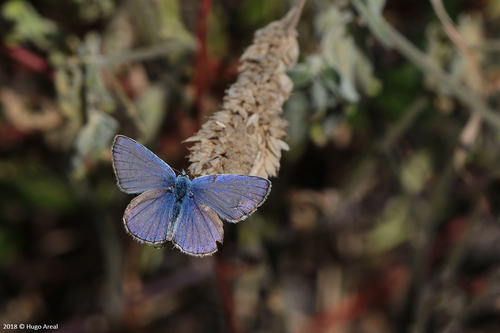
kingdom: Animalia
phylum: Arthropoda
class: Insecta
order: Lepidoptera
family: Lycaenidae
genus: Polyommatus
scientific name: Polyommatus icarus
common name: Common blue
